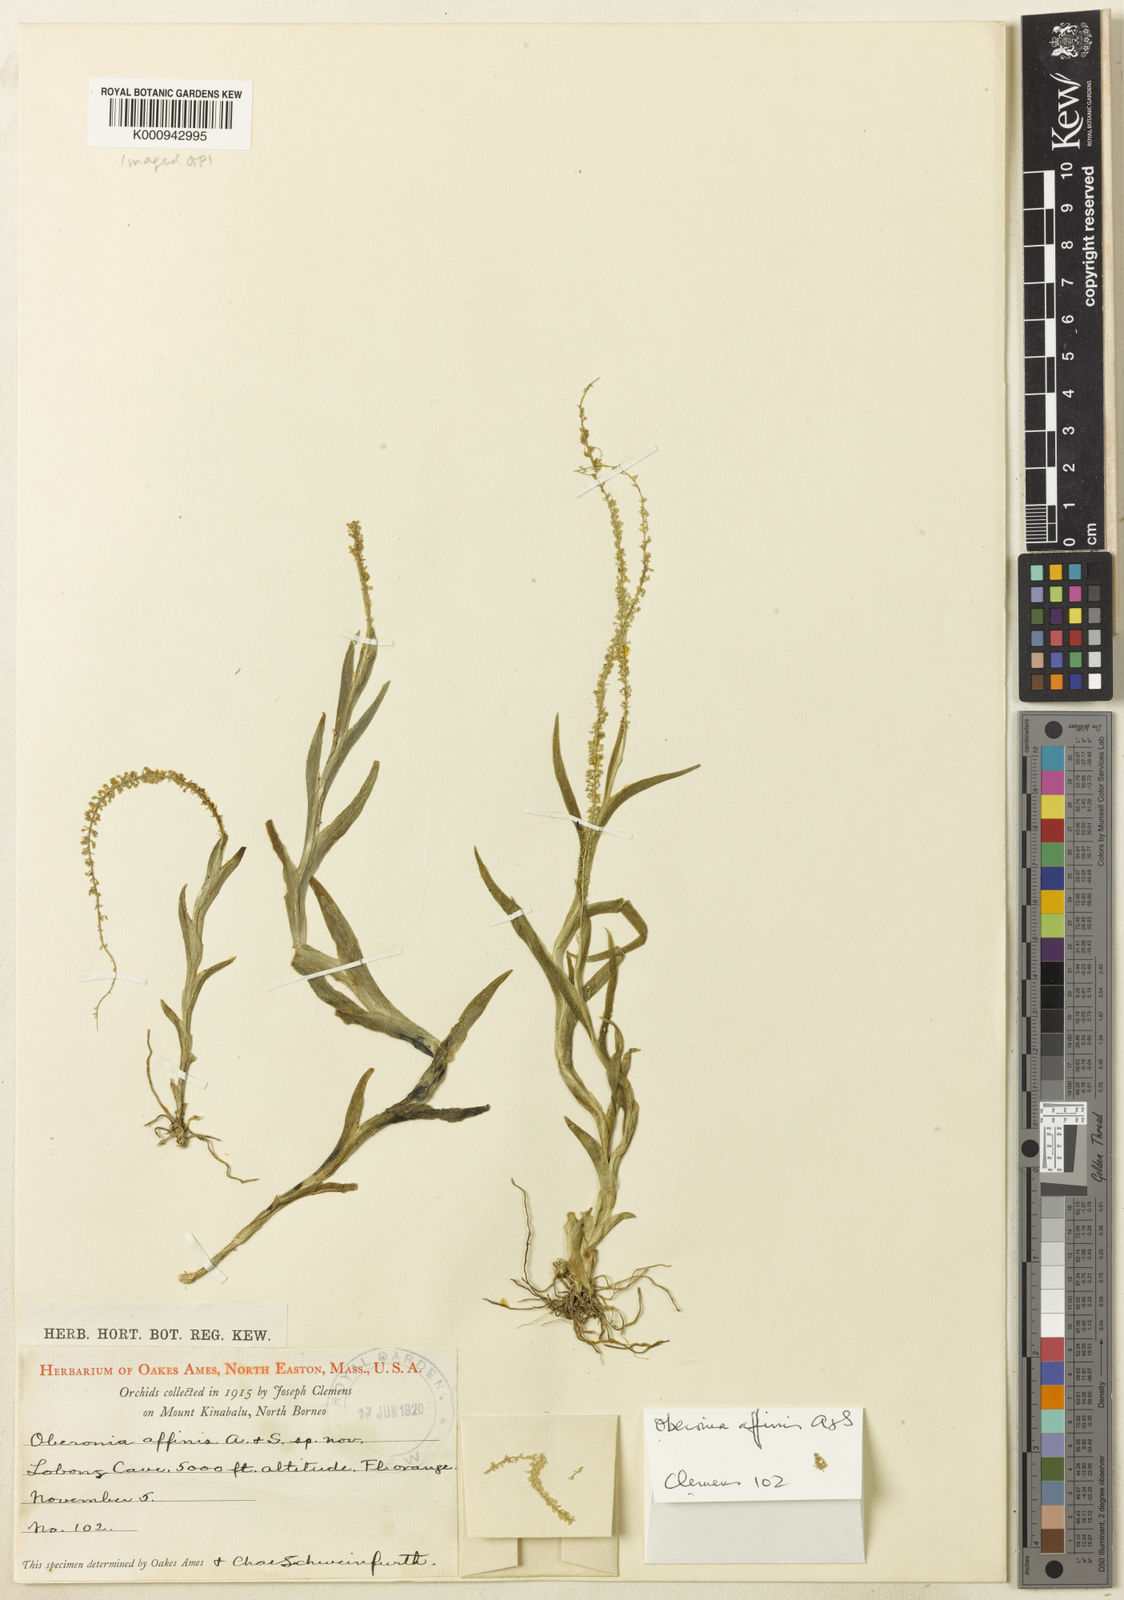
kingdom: Plantae
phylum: Tracheophyta
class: Liliopsida
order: Asparagales
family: Orchidaceae
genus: Oberonia
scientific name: Oberonia equitans
